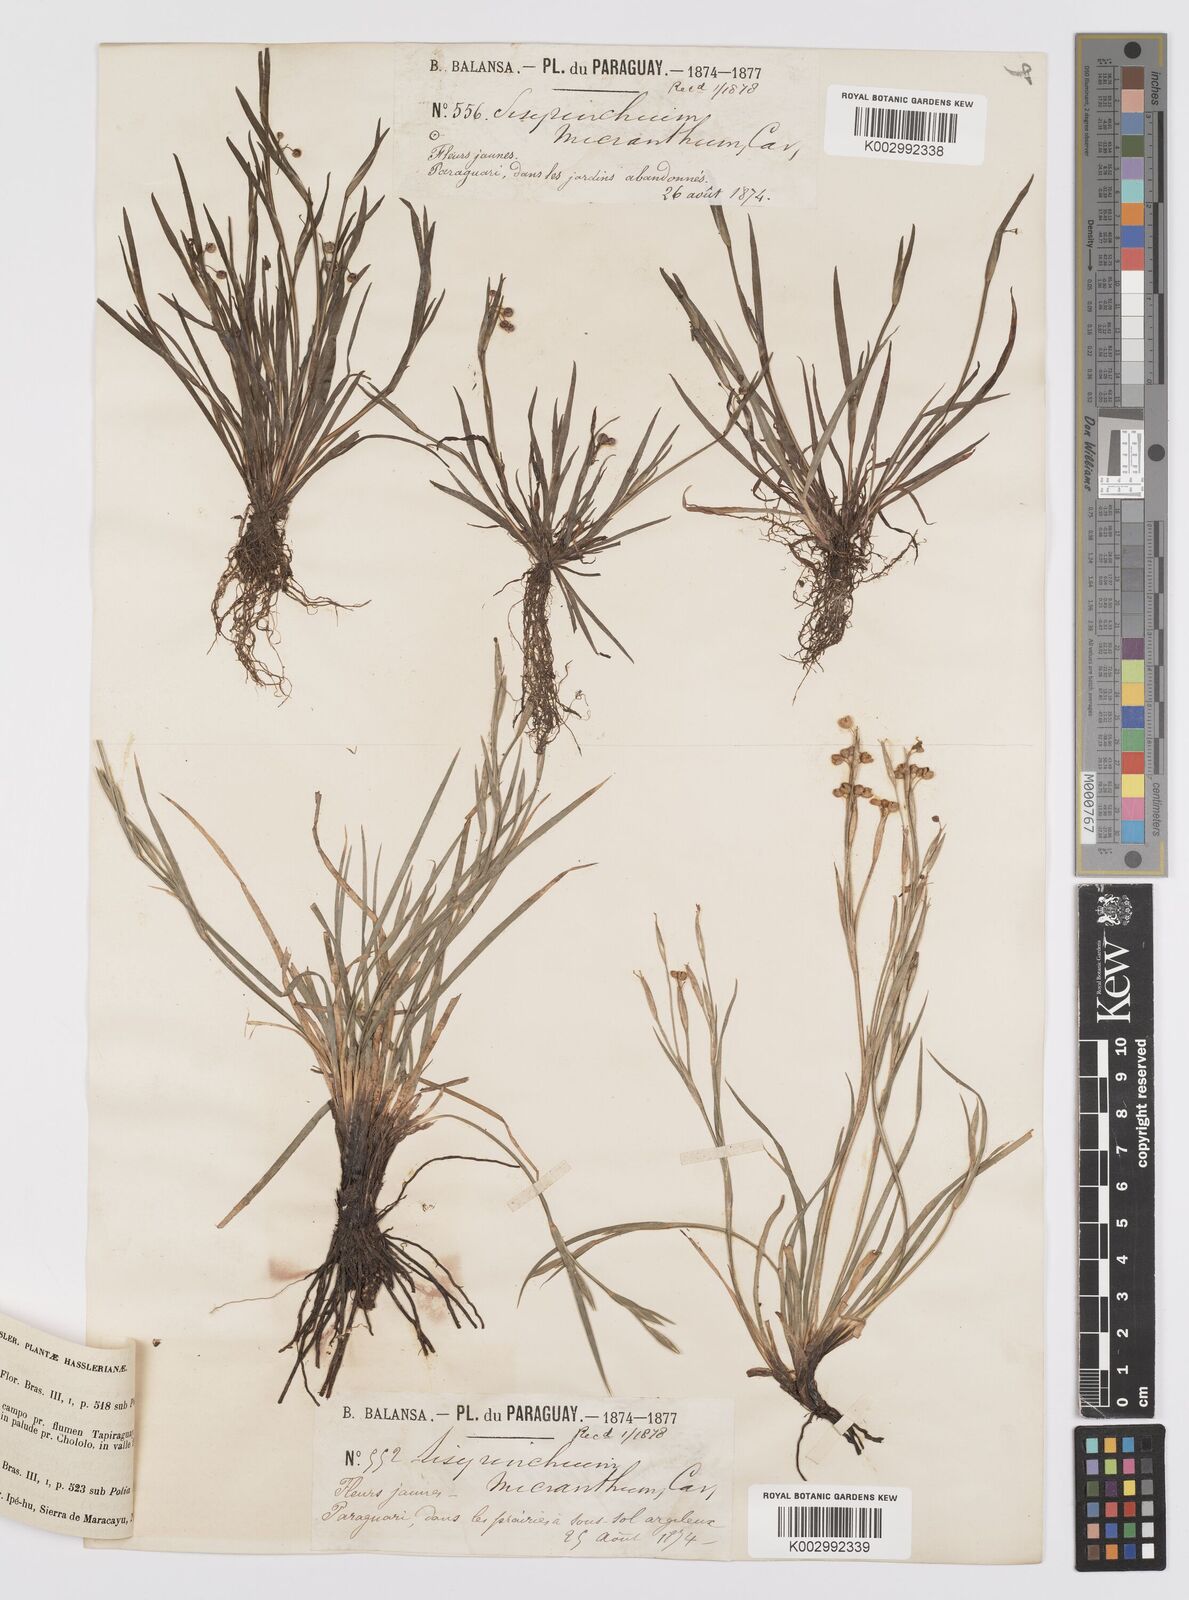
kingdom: Plantae
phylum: Tracheophyta
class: Liliopsida
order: Asparagales
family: Iridaceae
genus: Sisyrinchium
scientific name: Sisyrinchium micranthum
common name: Bermuda pigroot
